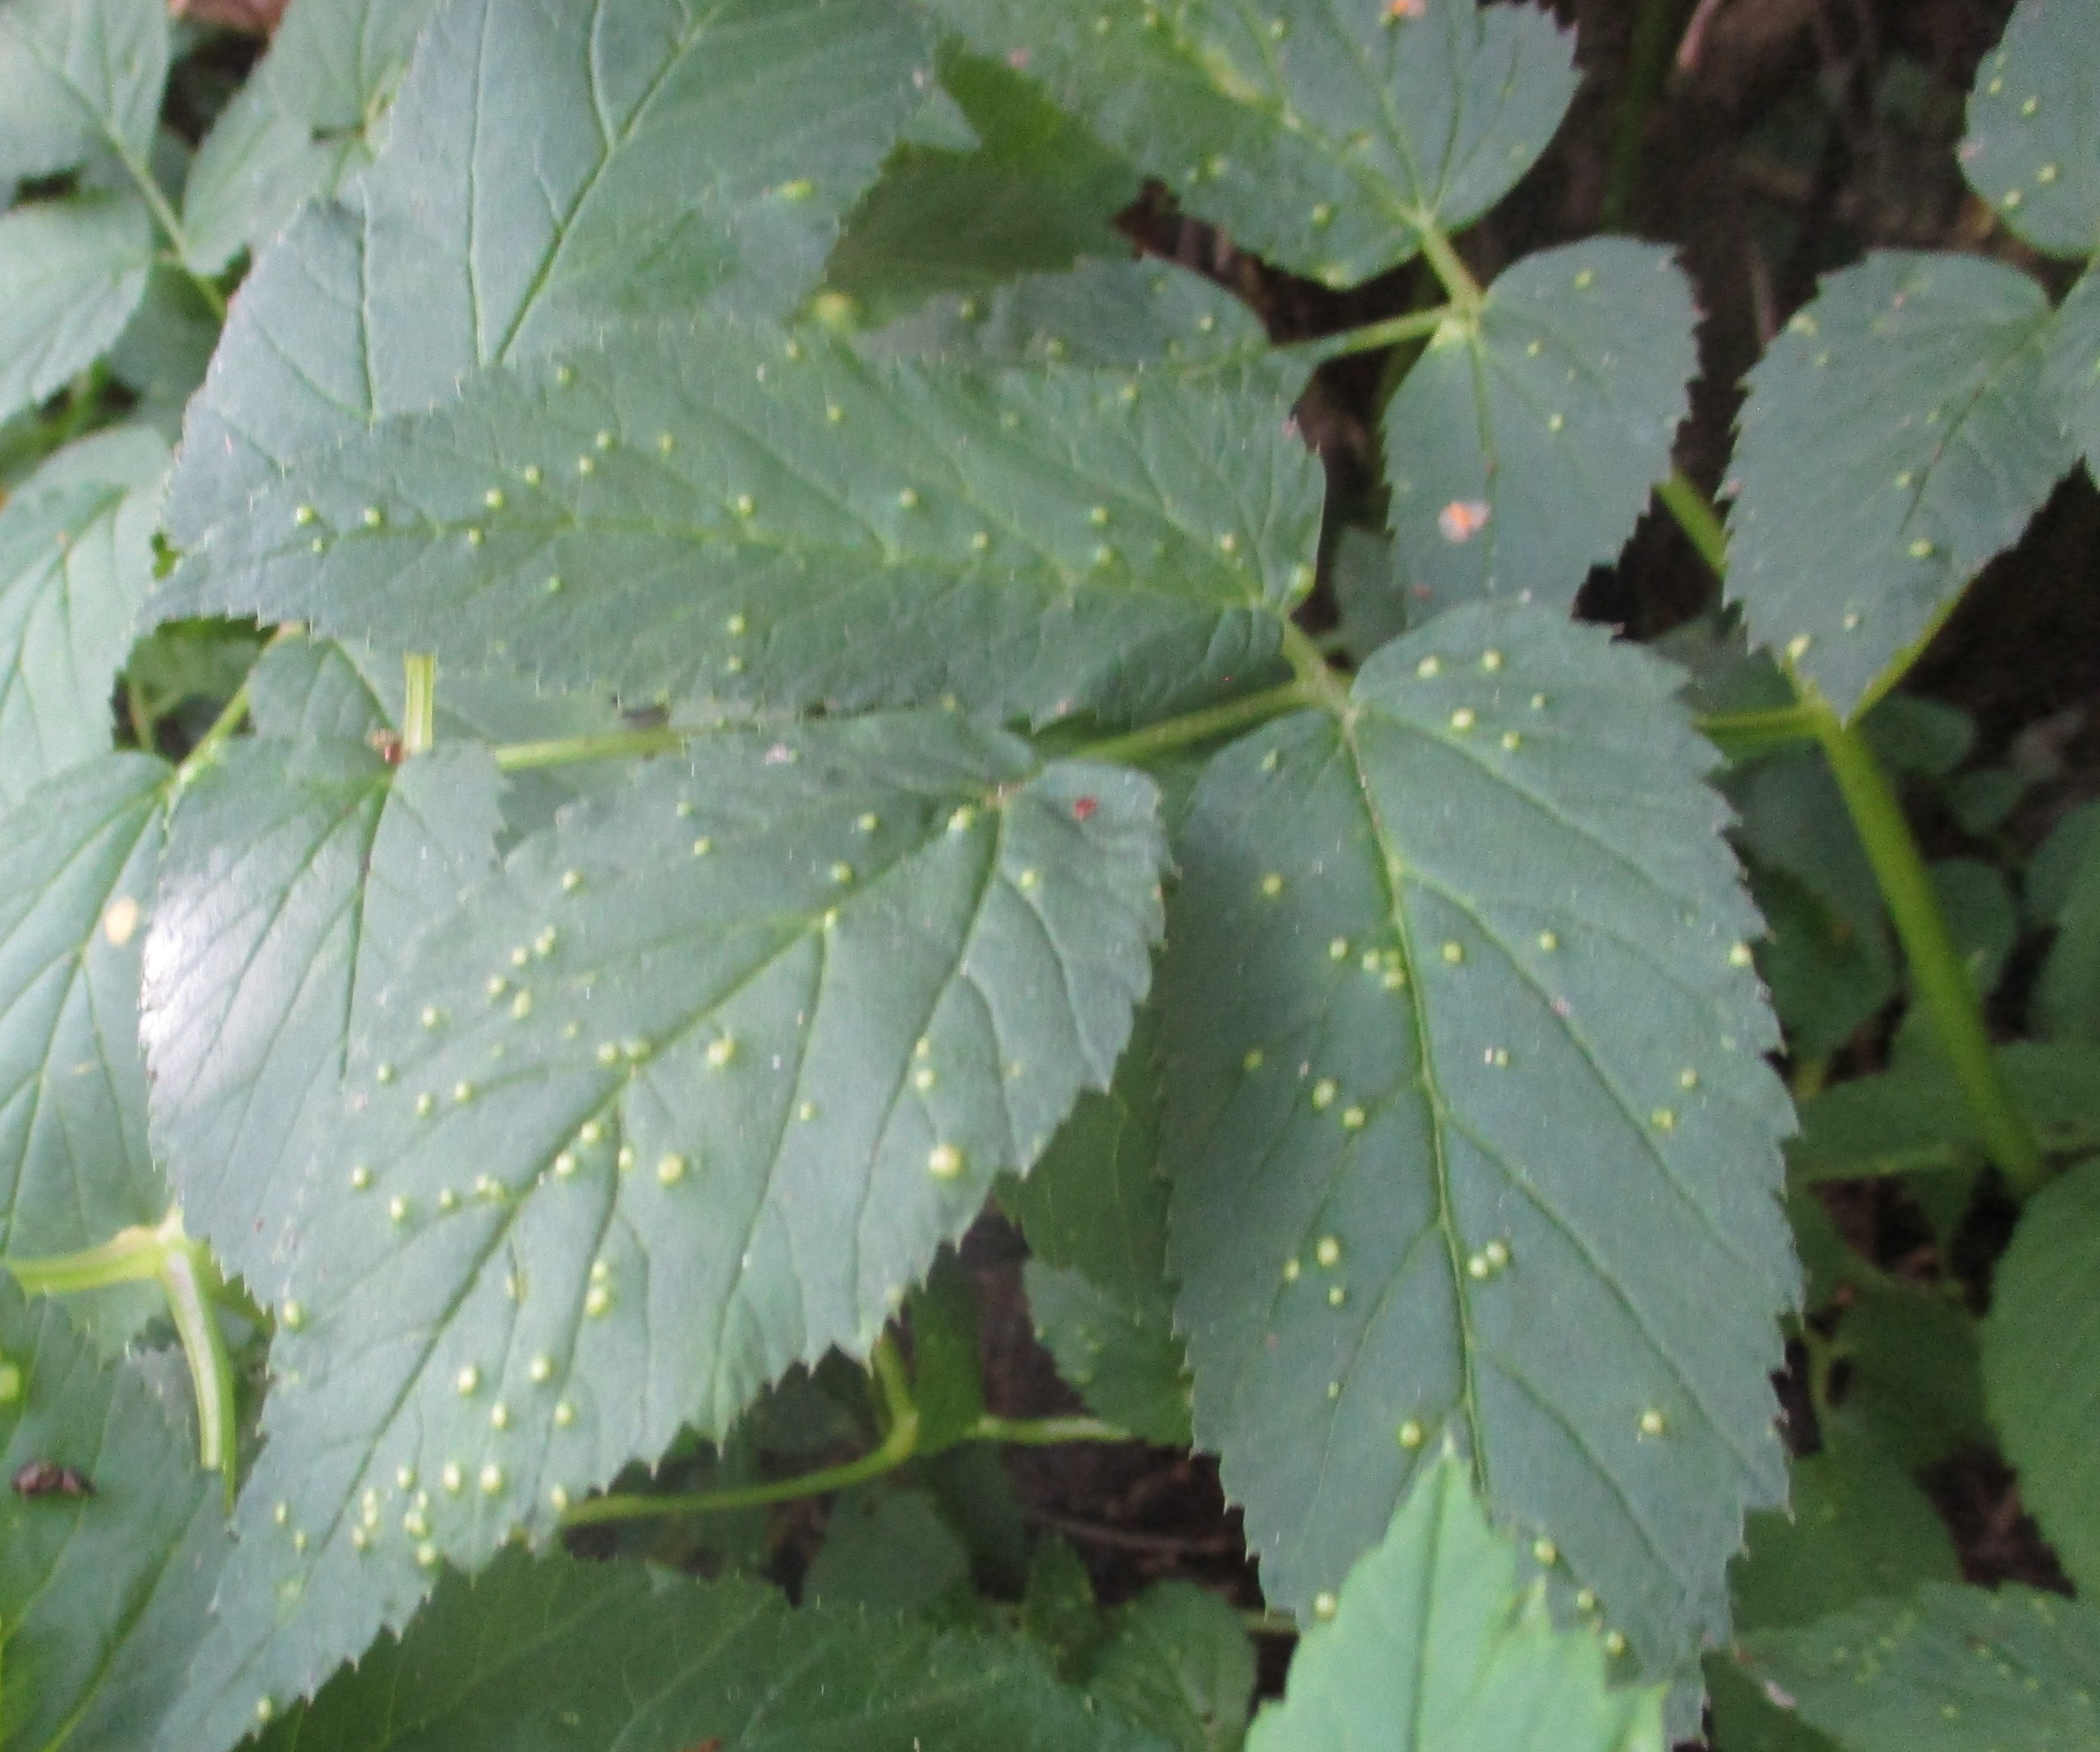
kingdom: Plantae
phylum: Tracheophyta
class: Magnoliopsida
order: Apiales
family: Apiaceae
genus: Aegopodium
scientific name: Aegopodium podagraria
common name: Skvalderkål
